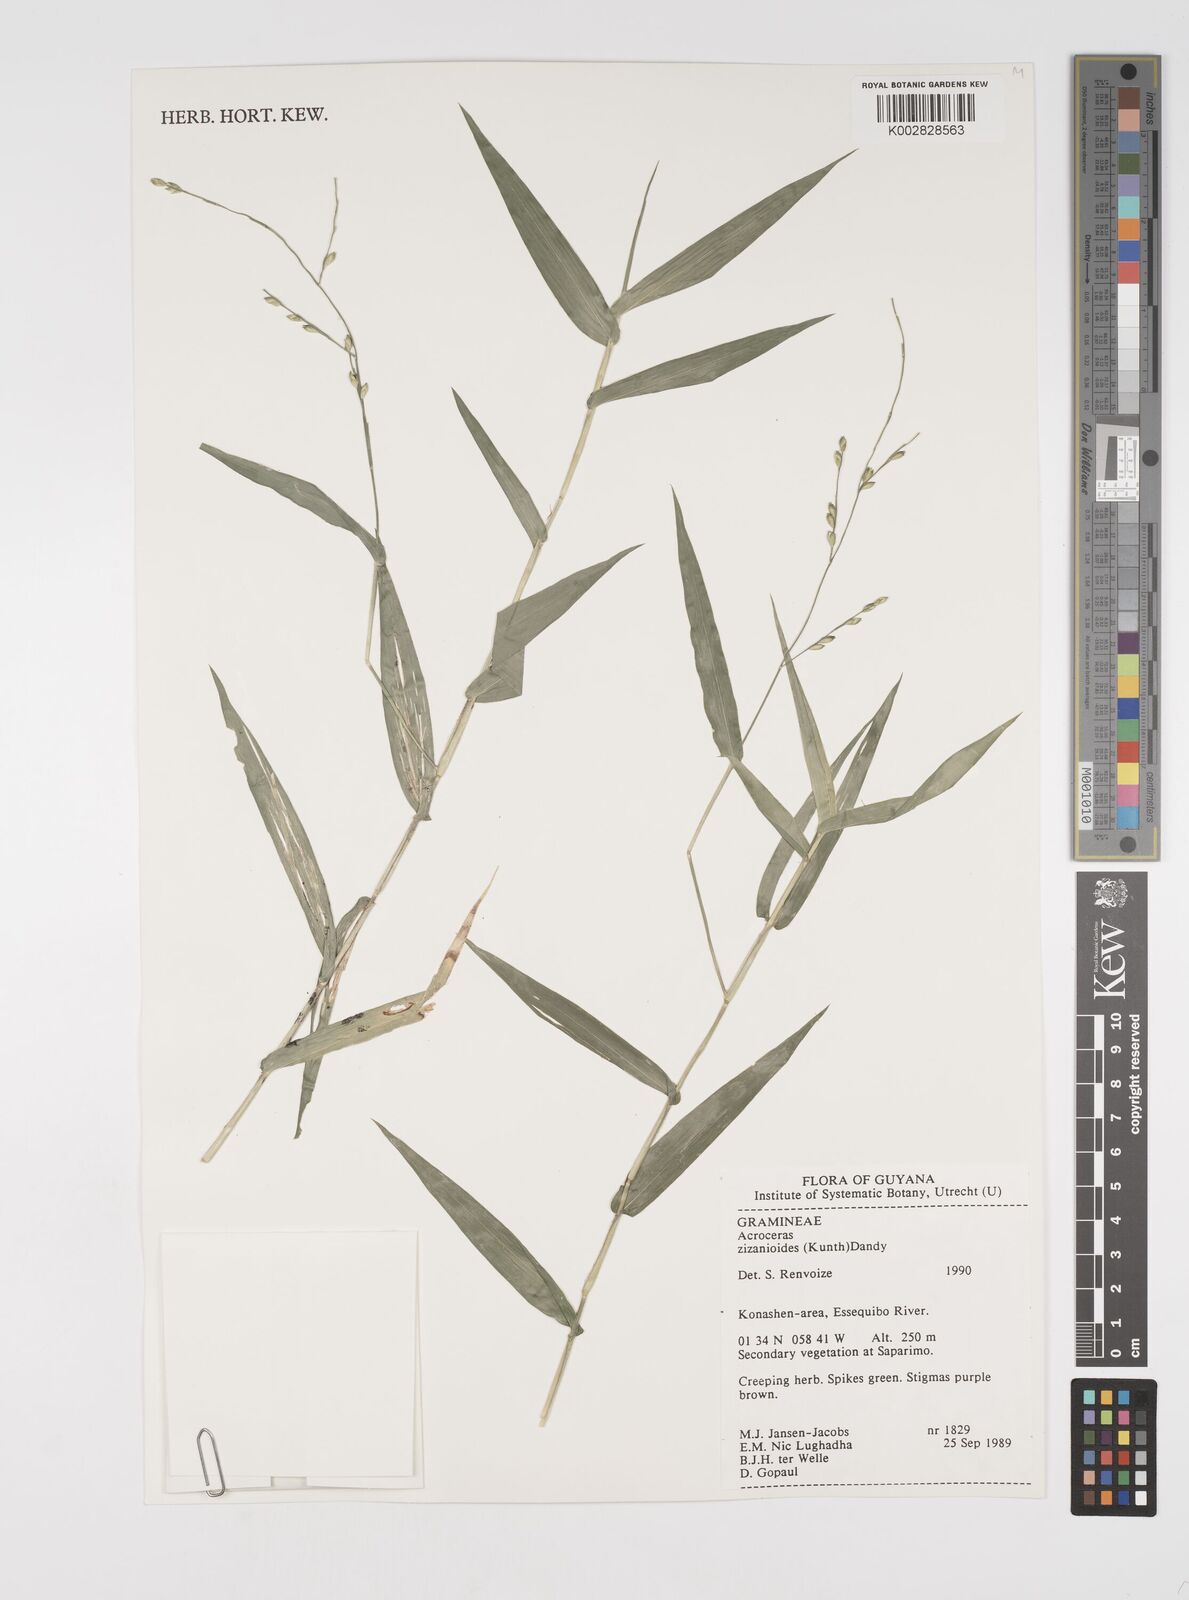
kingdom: Plantae
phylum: Tracheophyta
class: Liliopsida
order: Poales
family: Poaceae
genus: Acroceras
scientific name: Acroceras zizanioides
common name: Oat grass
